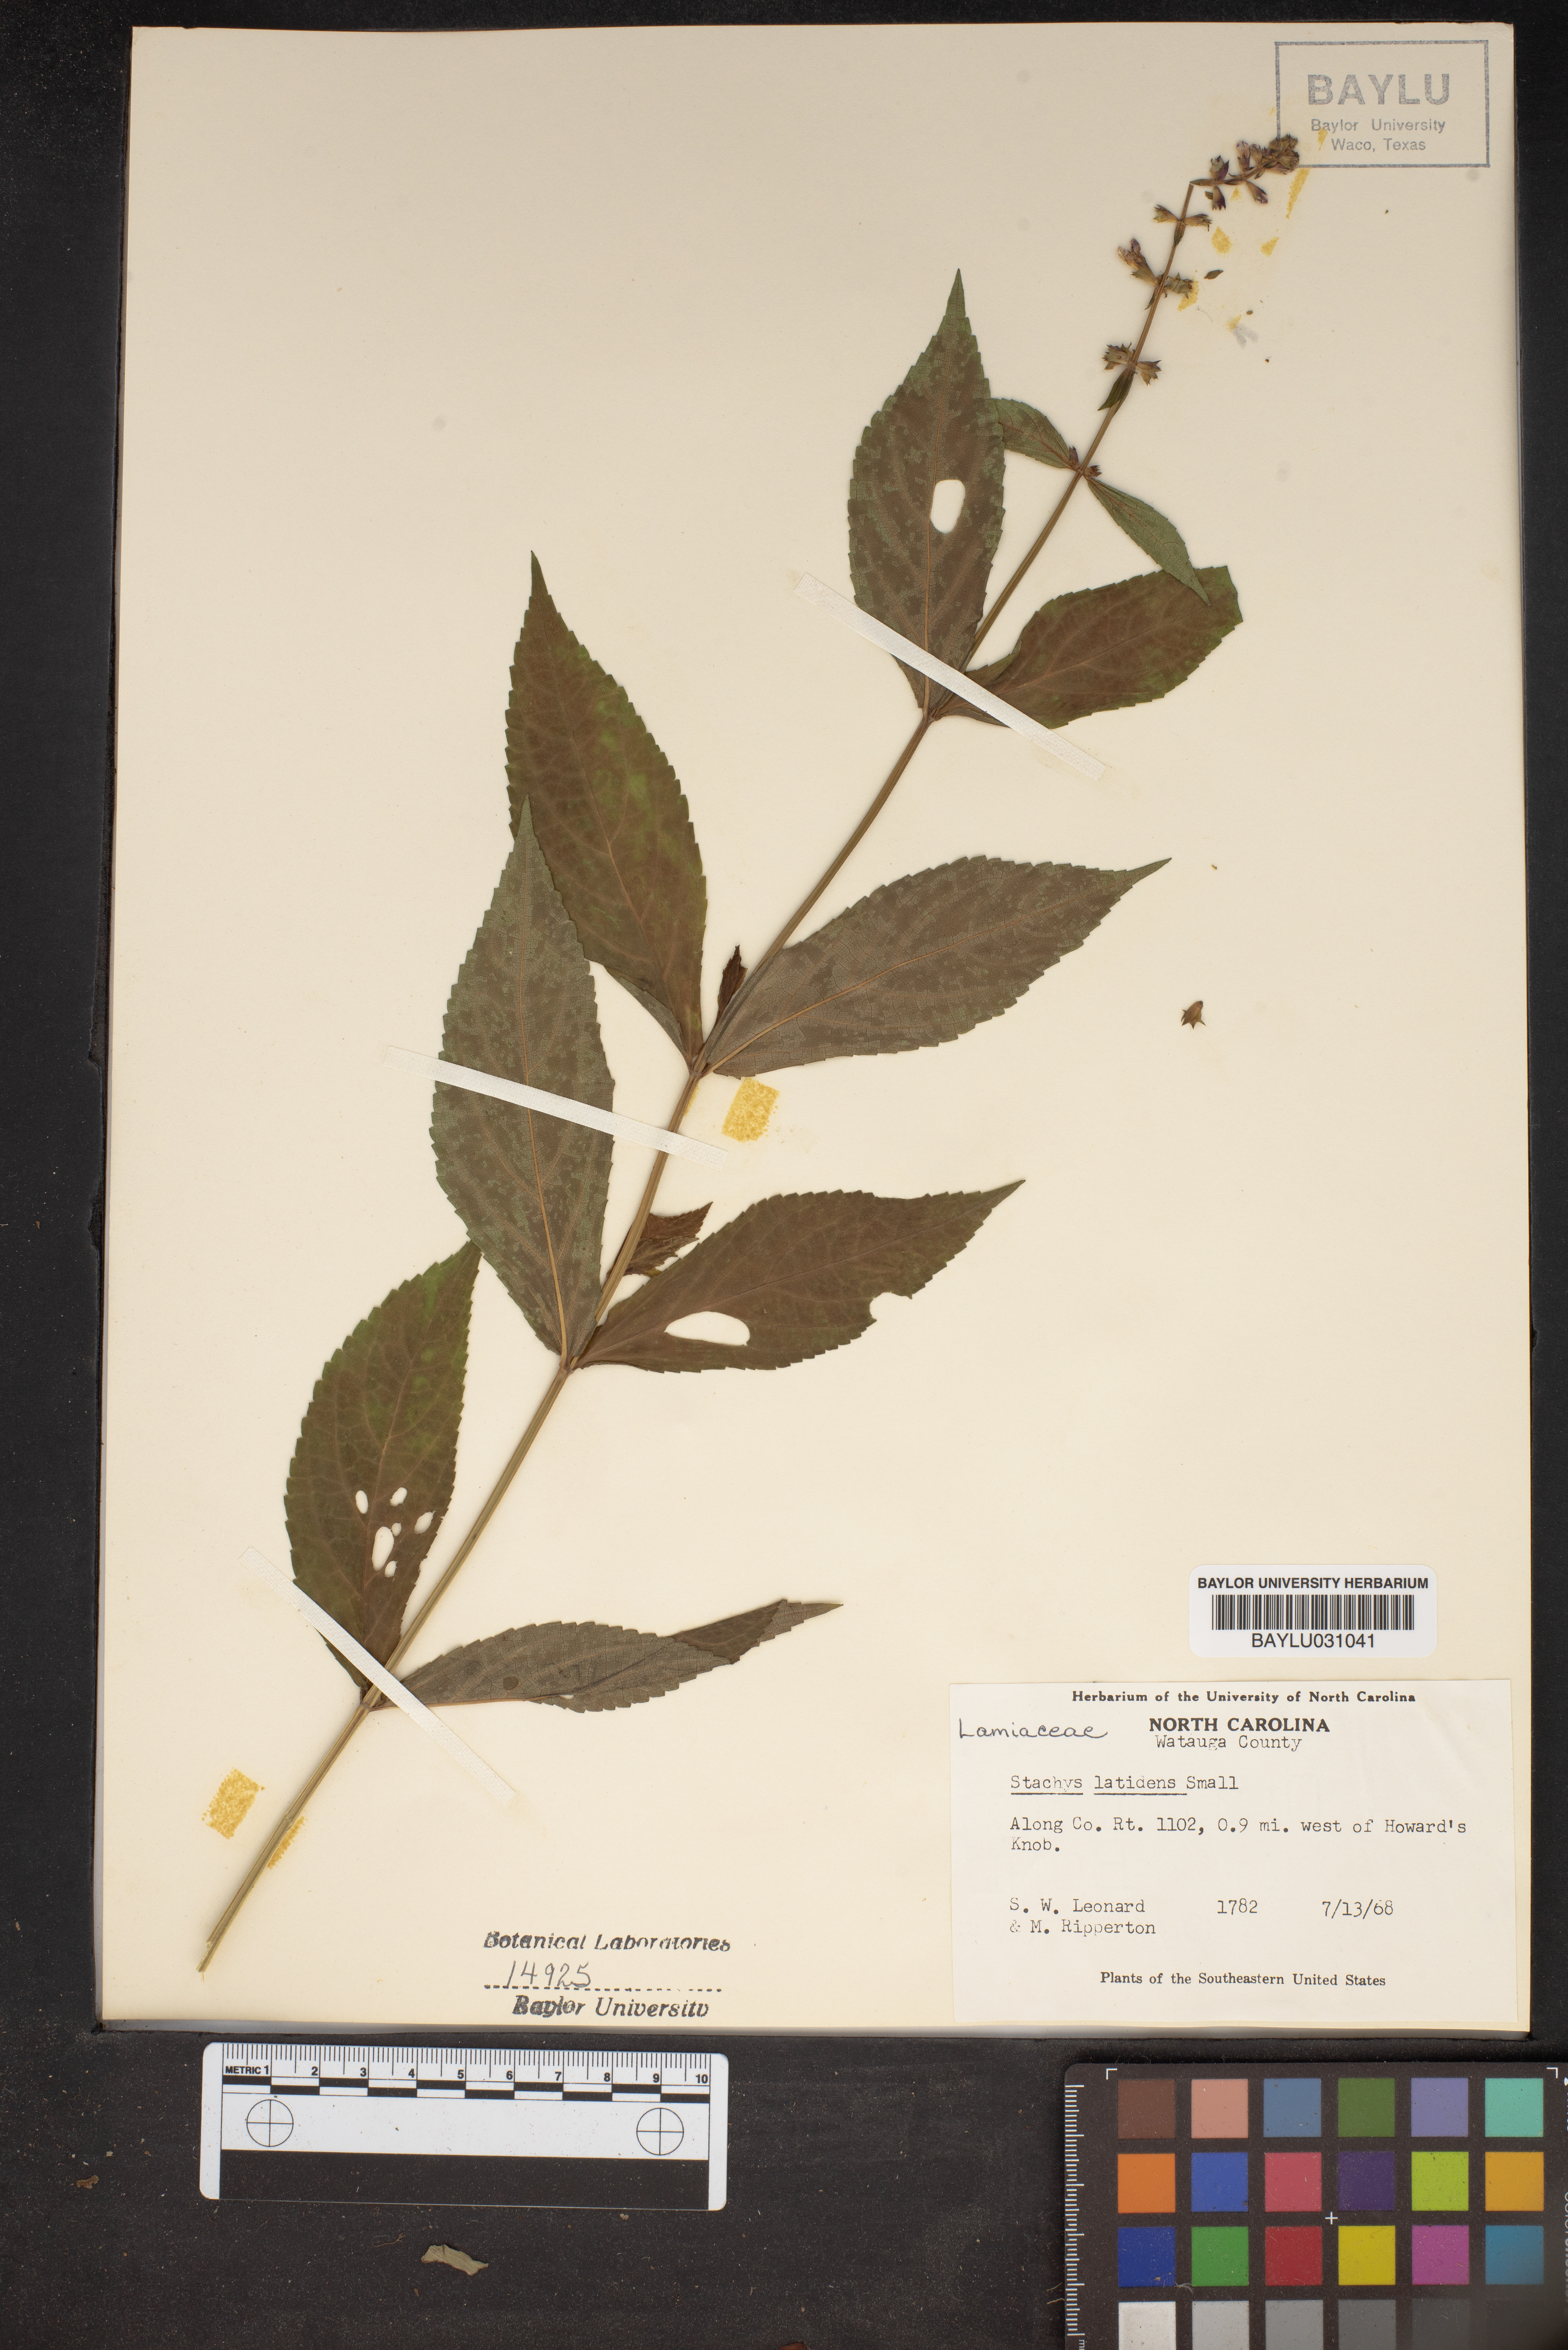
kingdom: Plantae
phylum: Tracheophyta
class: Magnoliopsida
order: Lamiales
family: Lamiaceae
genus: Stachys
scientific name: Stachys latidens
